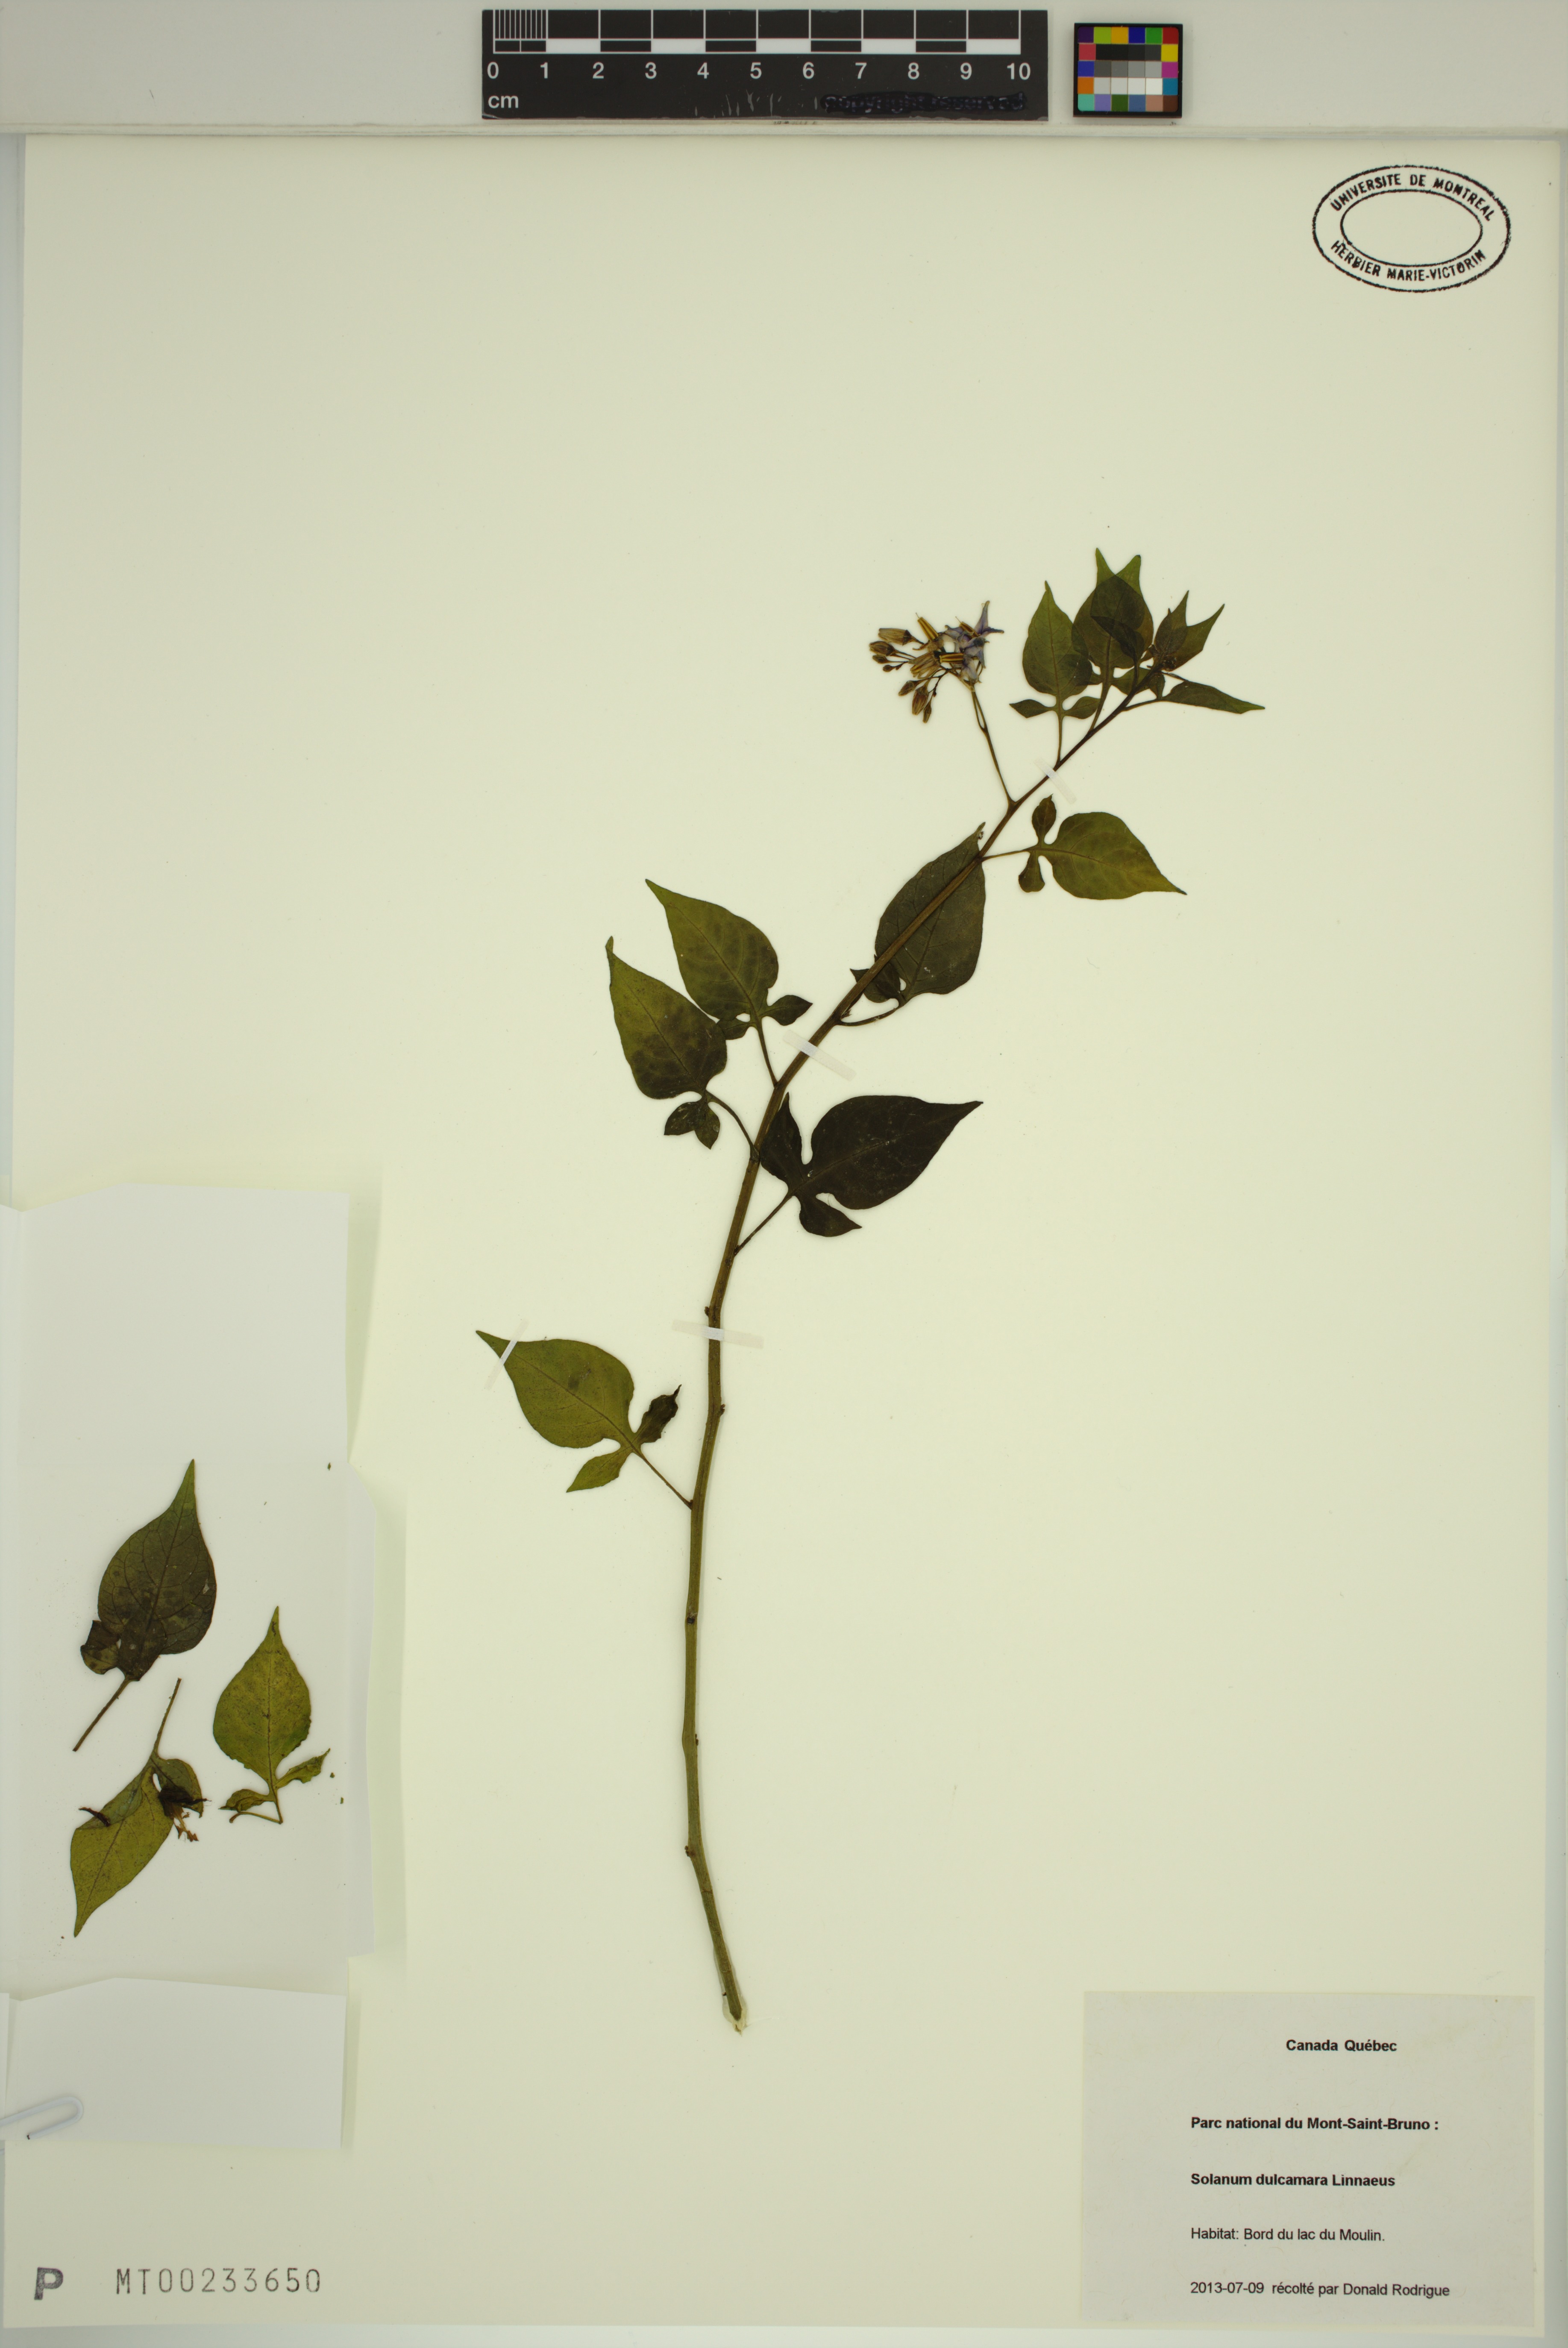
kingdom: Plantae
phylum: Tracheophyta
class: Magnoliopsida
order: Solanales
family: Solanaceae
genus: Solanum
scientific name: Solanum dulcamara
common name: Climbing nightshade
